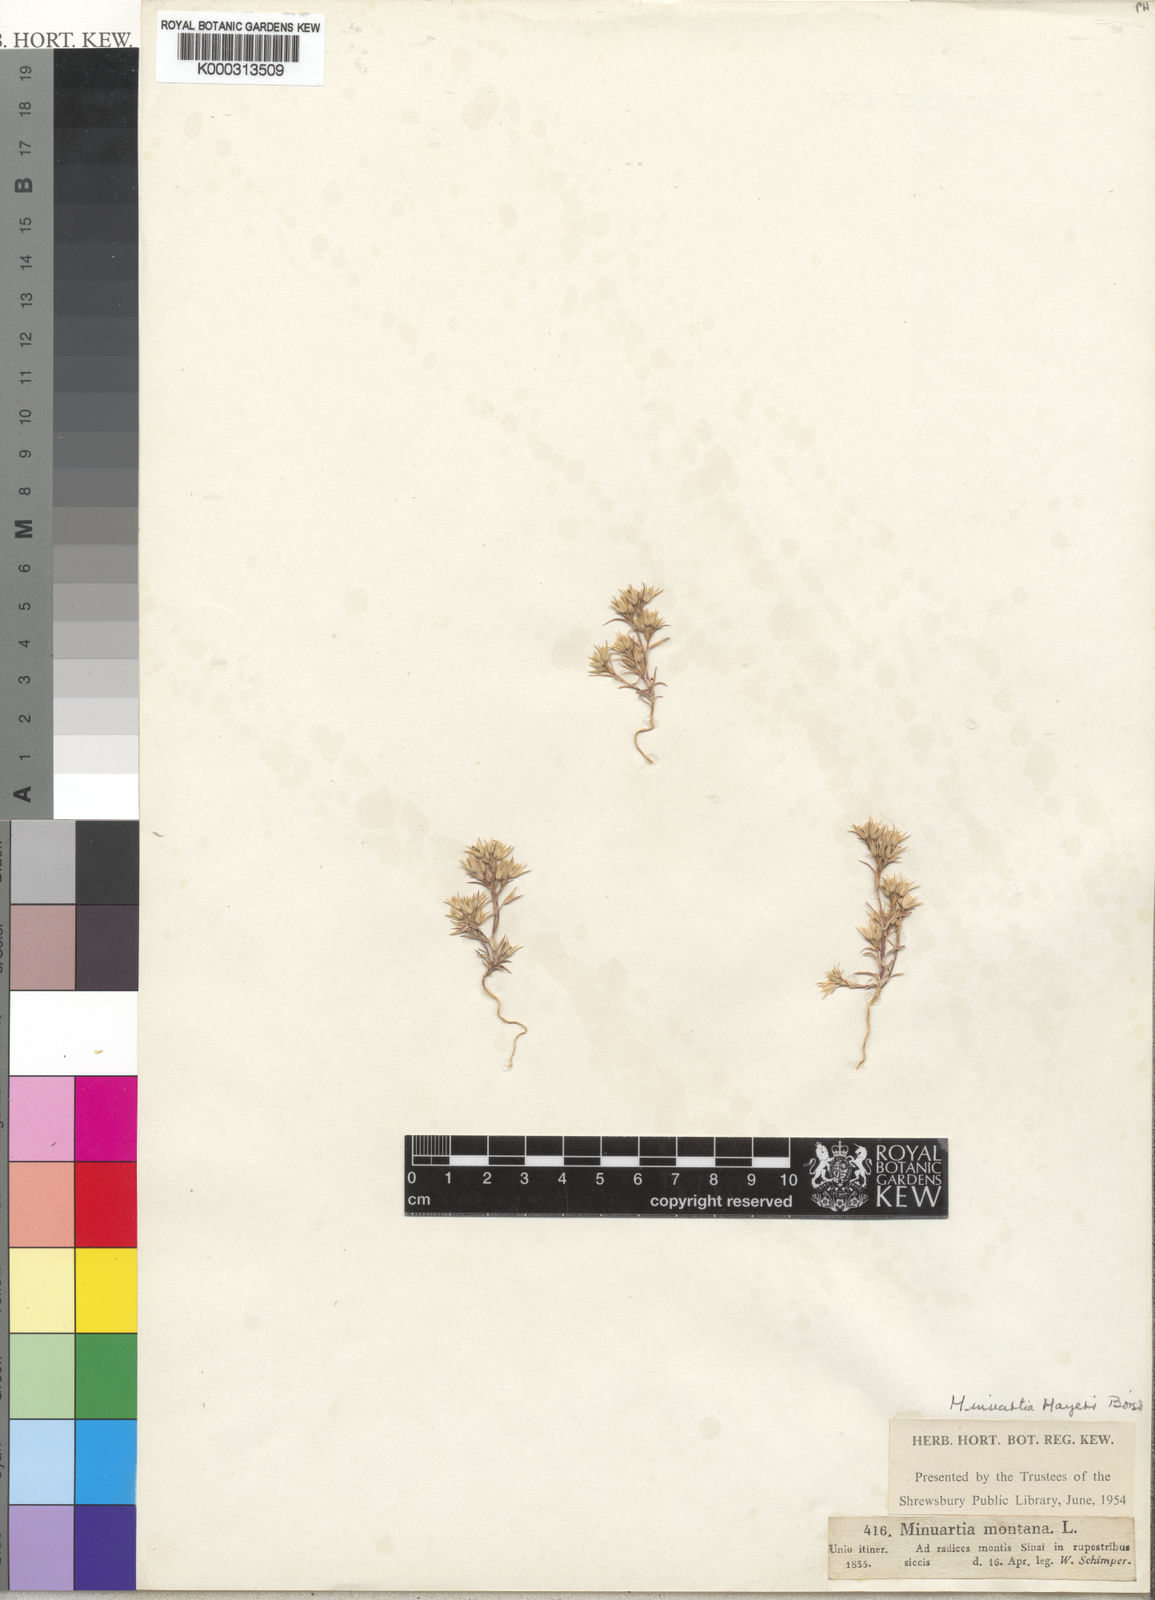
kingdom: Plantae
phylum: Tracheophyta
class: Magnoliopsida
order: Caryophyllales
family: Caryophyllaceae
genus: Minuartia
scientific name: Minuartia montana
